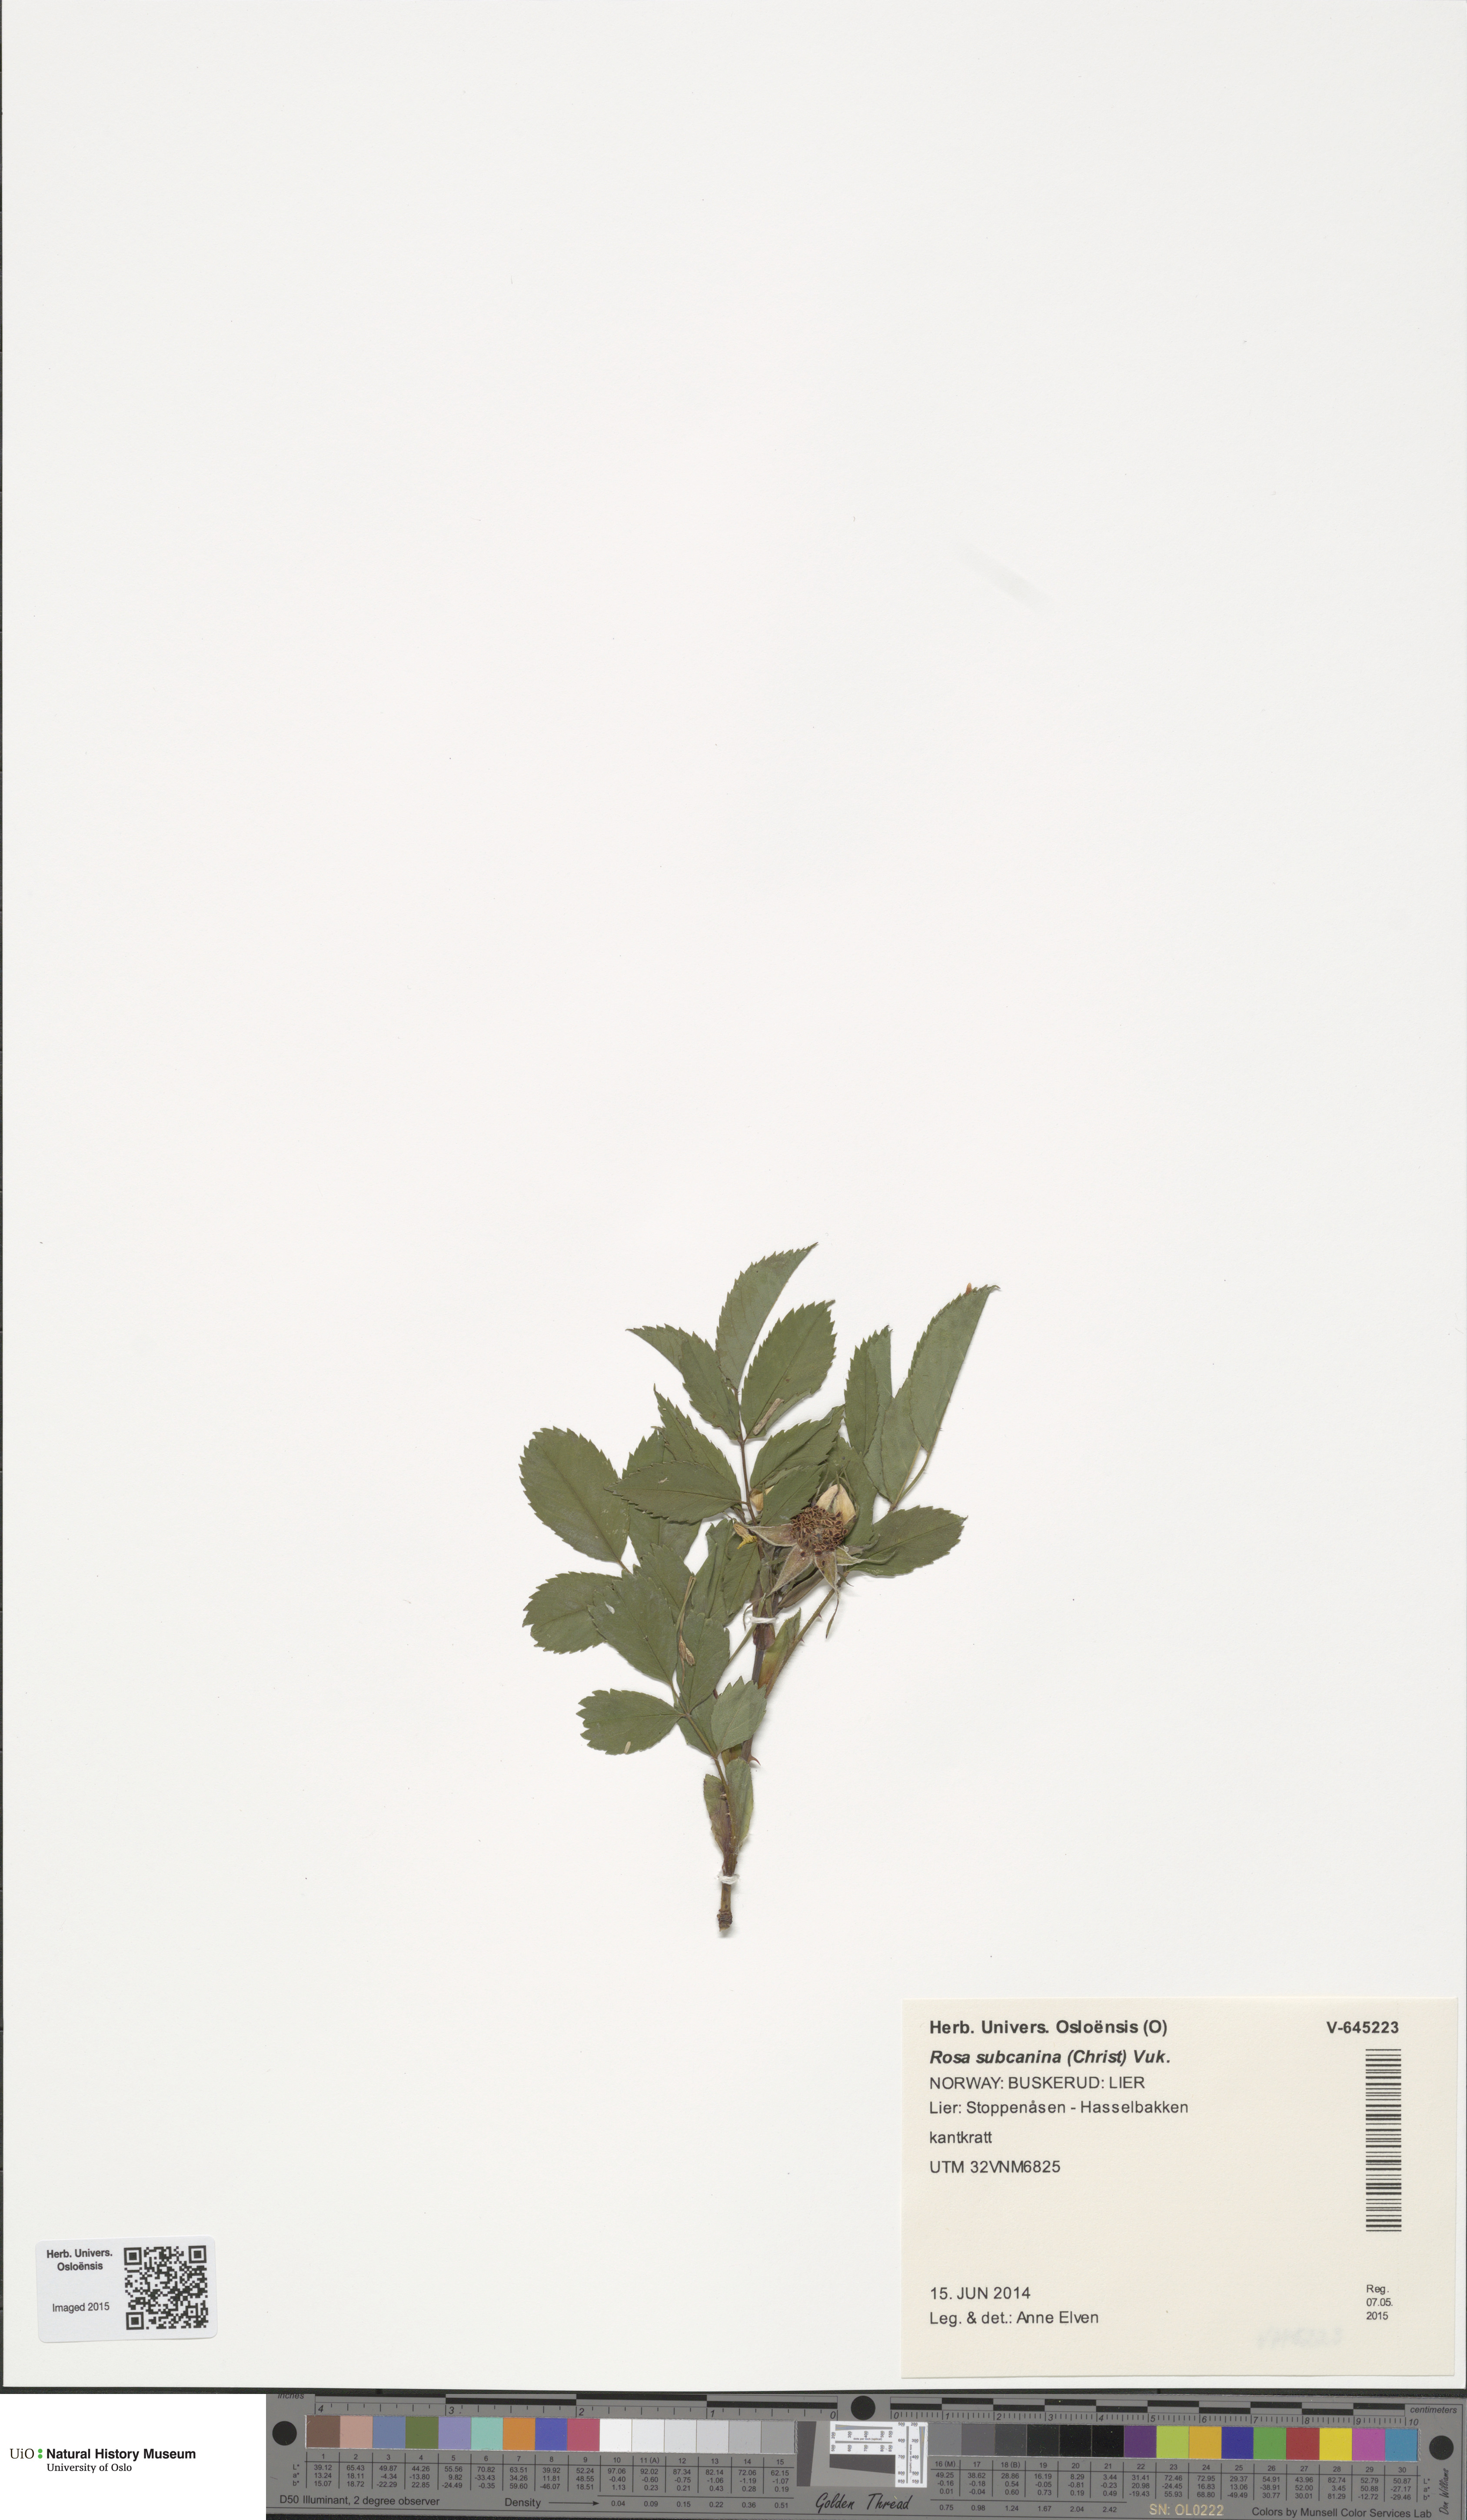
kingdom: Plantae
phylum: Tracheophyta
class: Magnoliopsida
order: Rosales
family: Rosaceae
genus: Rosa
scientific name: Rosa subcanina
